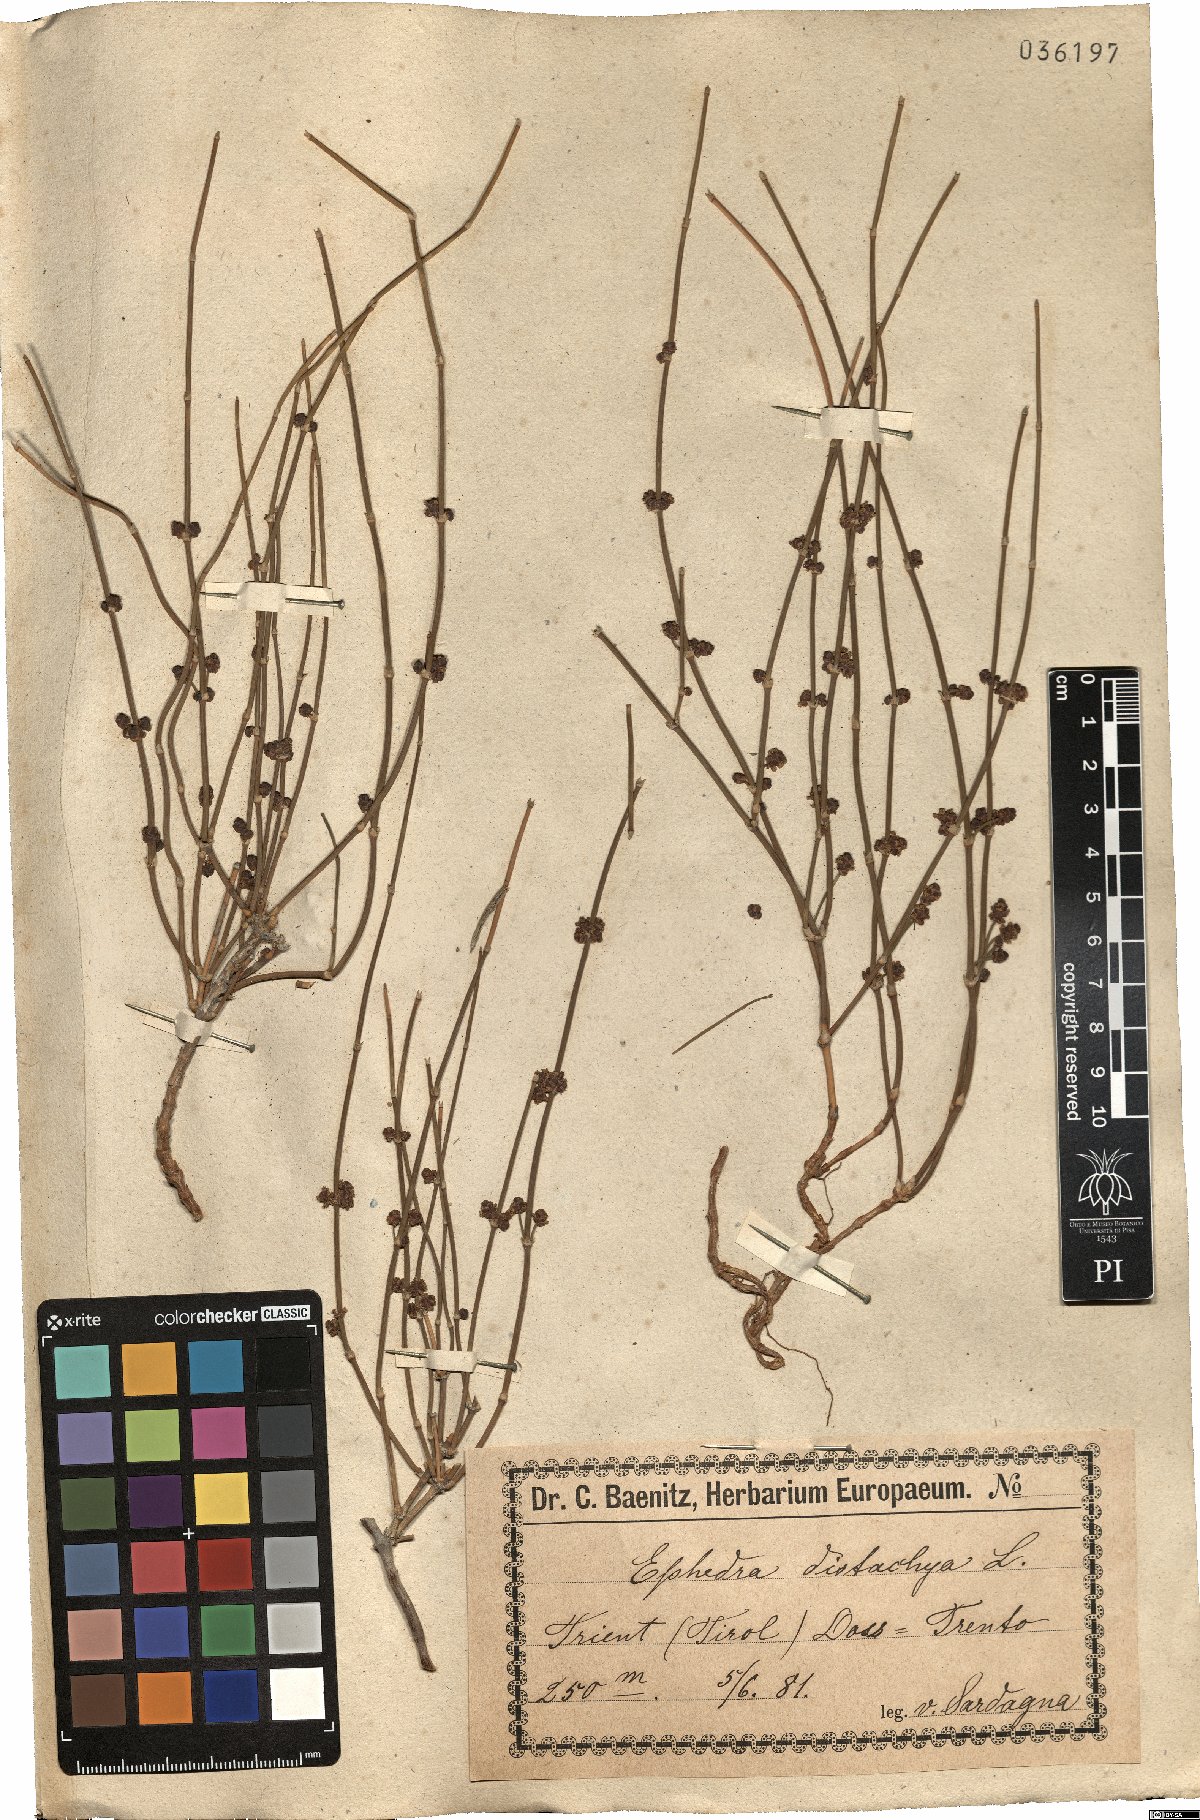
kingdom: Plantae
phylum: Tracheophyta
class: Gnetopsida
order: Ephedrales
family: Ephedraceae
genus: Ephedra
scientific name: Ephedra distachya
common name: Sea grape
